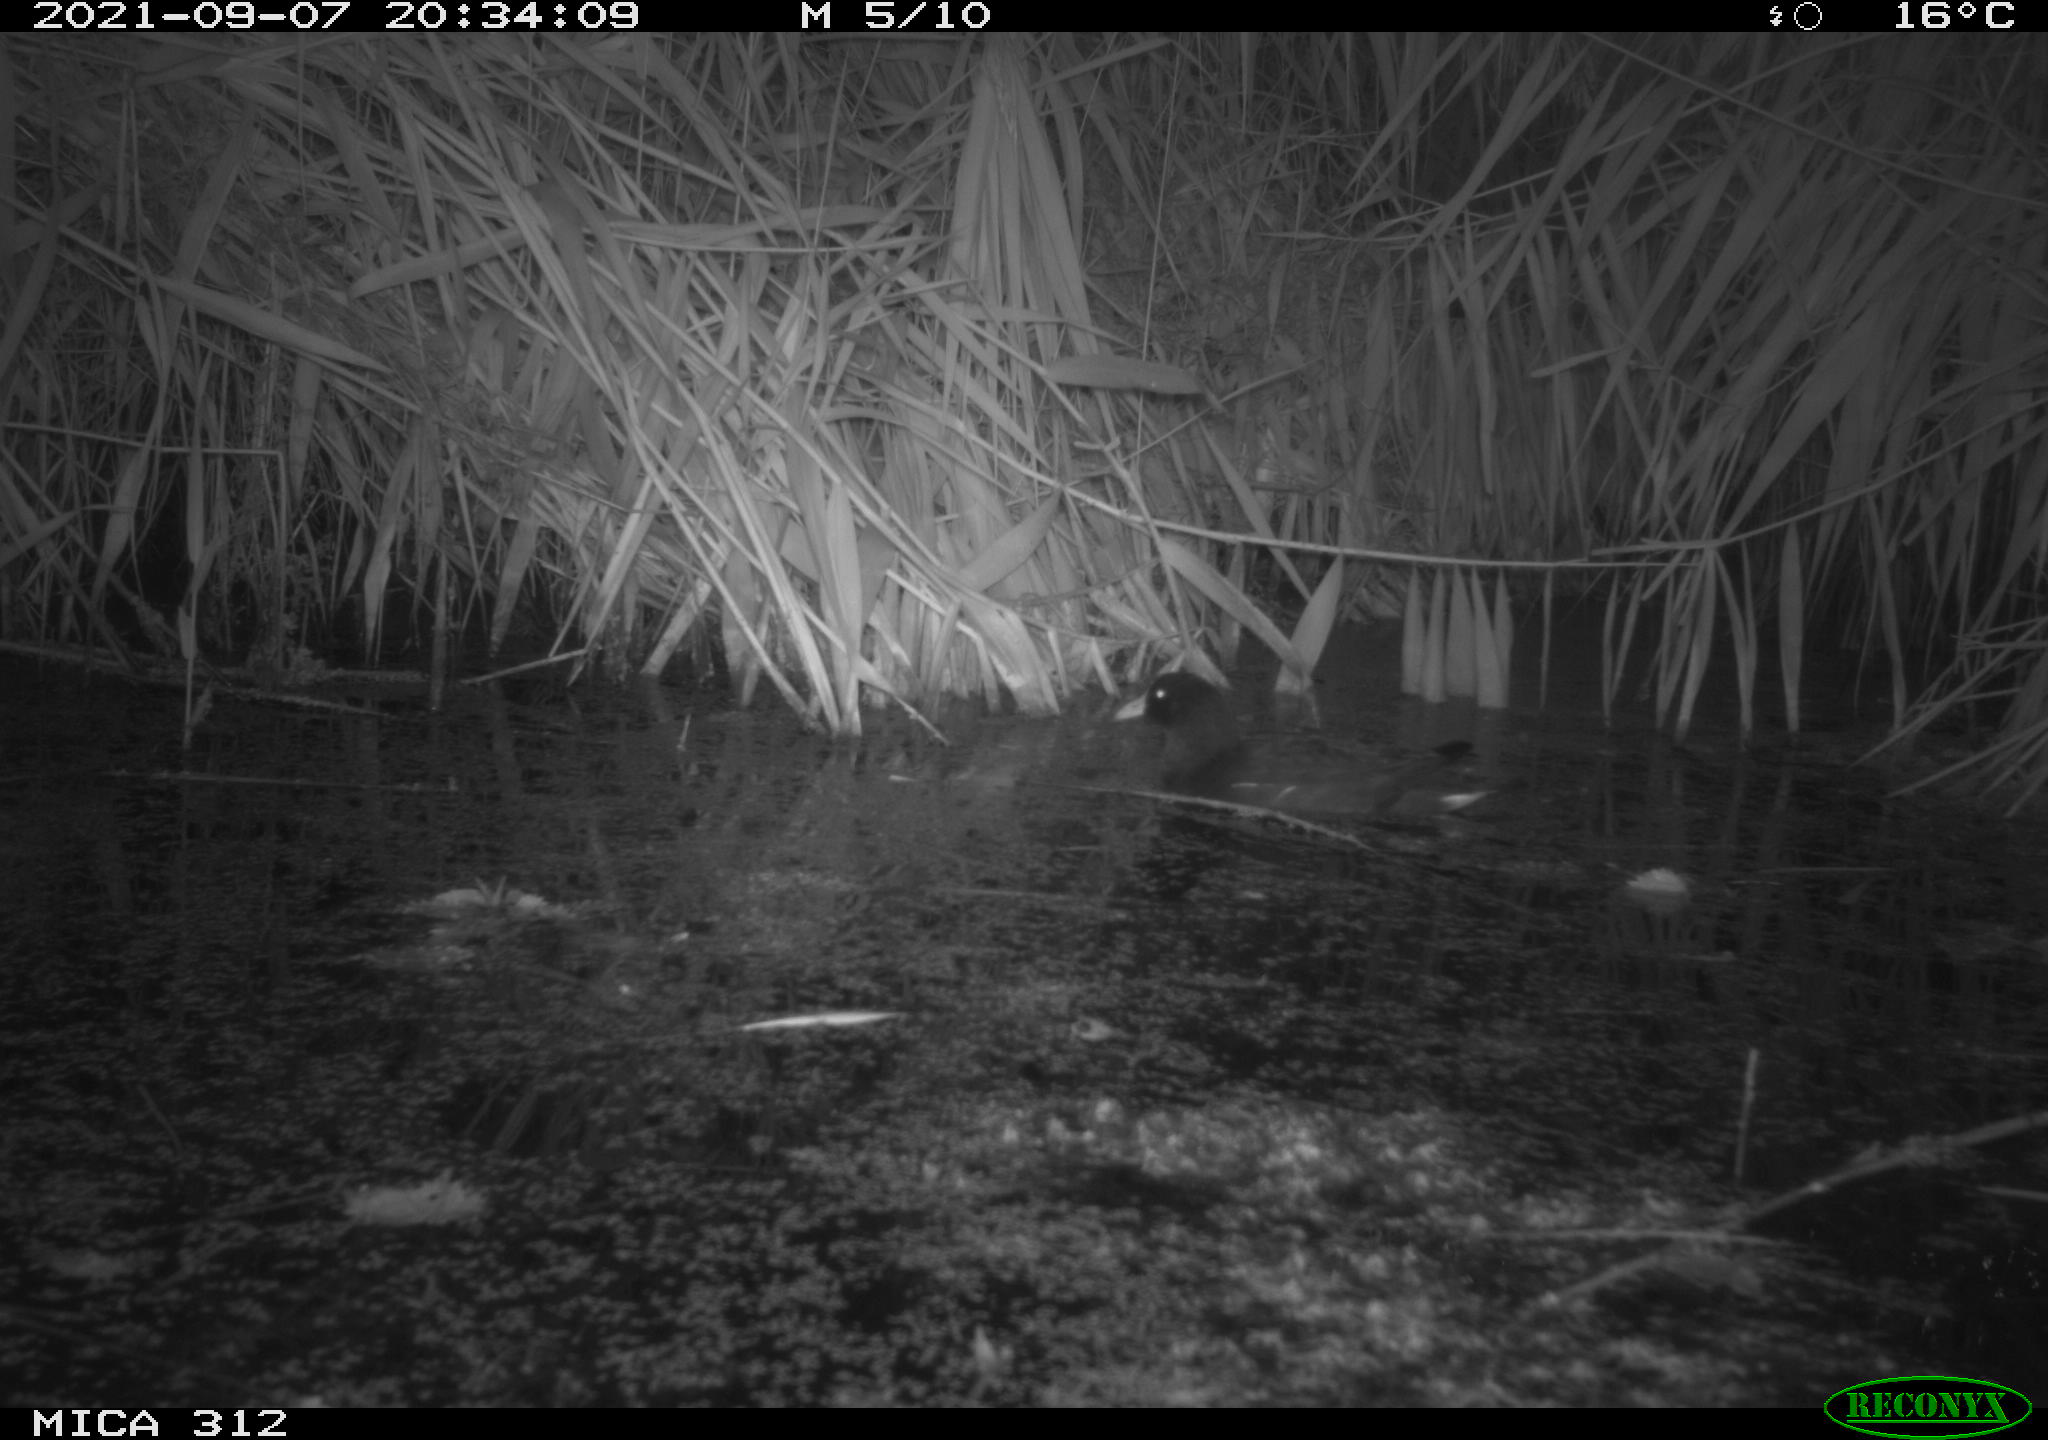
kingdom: Animalia
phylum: Chordata
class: Aves
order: Gruiformes
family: Rallidae
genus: Gallinula
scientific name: Gallinula chloropus
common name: Common moorhen
